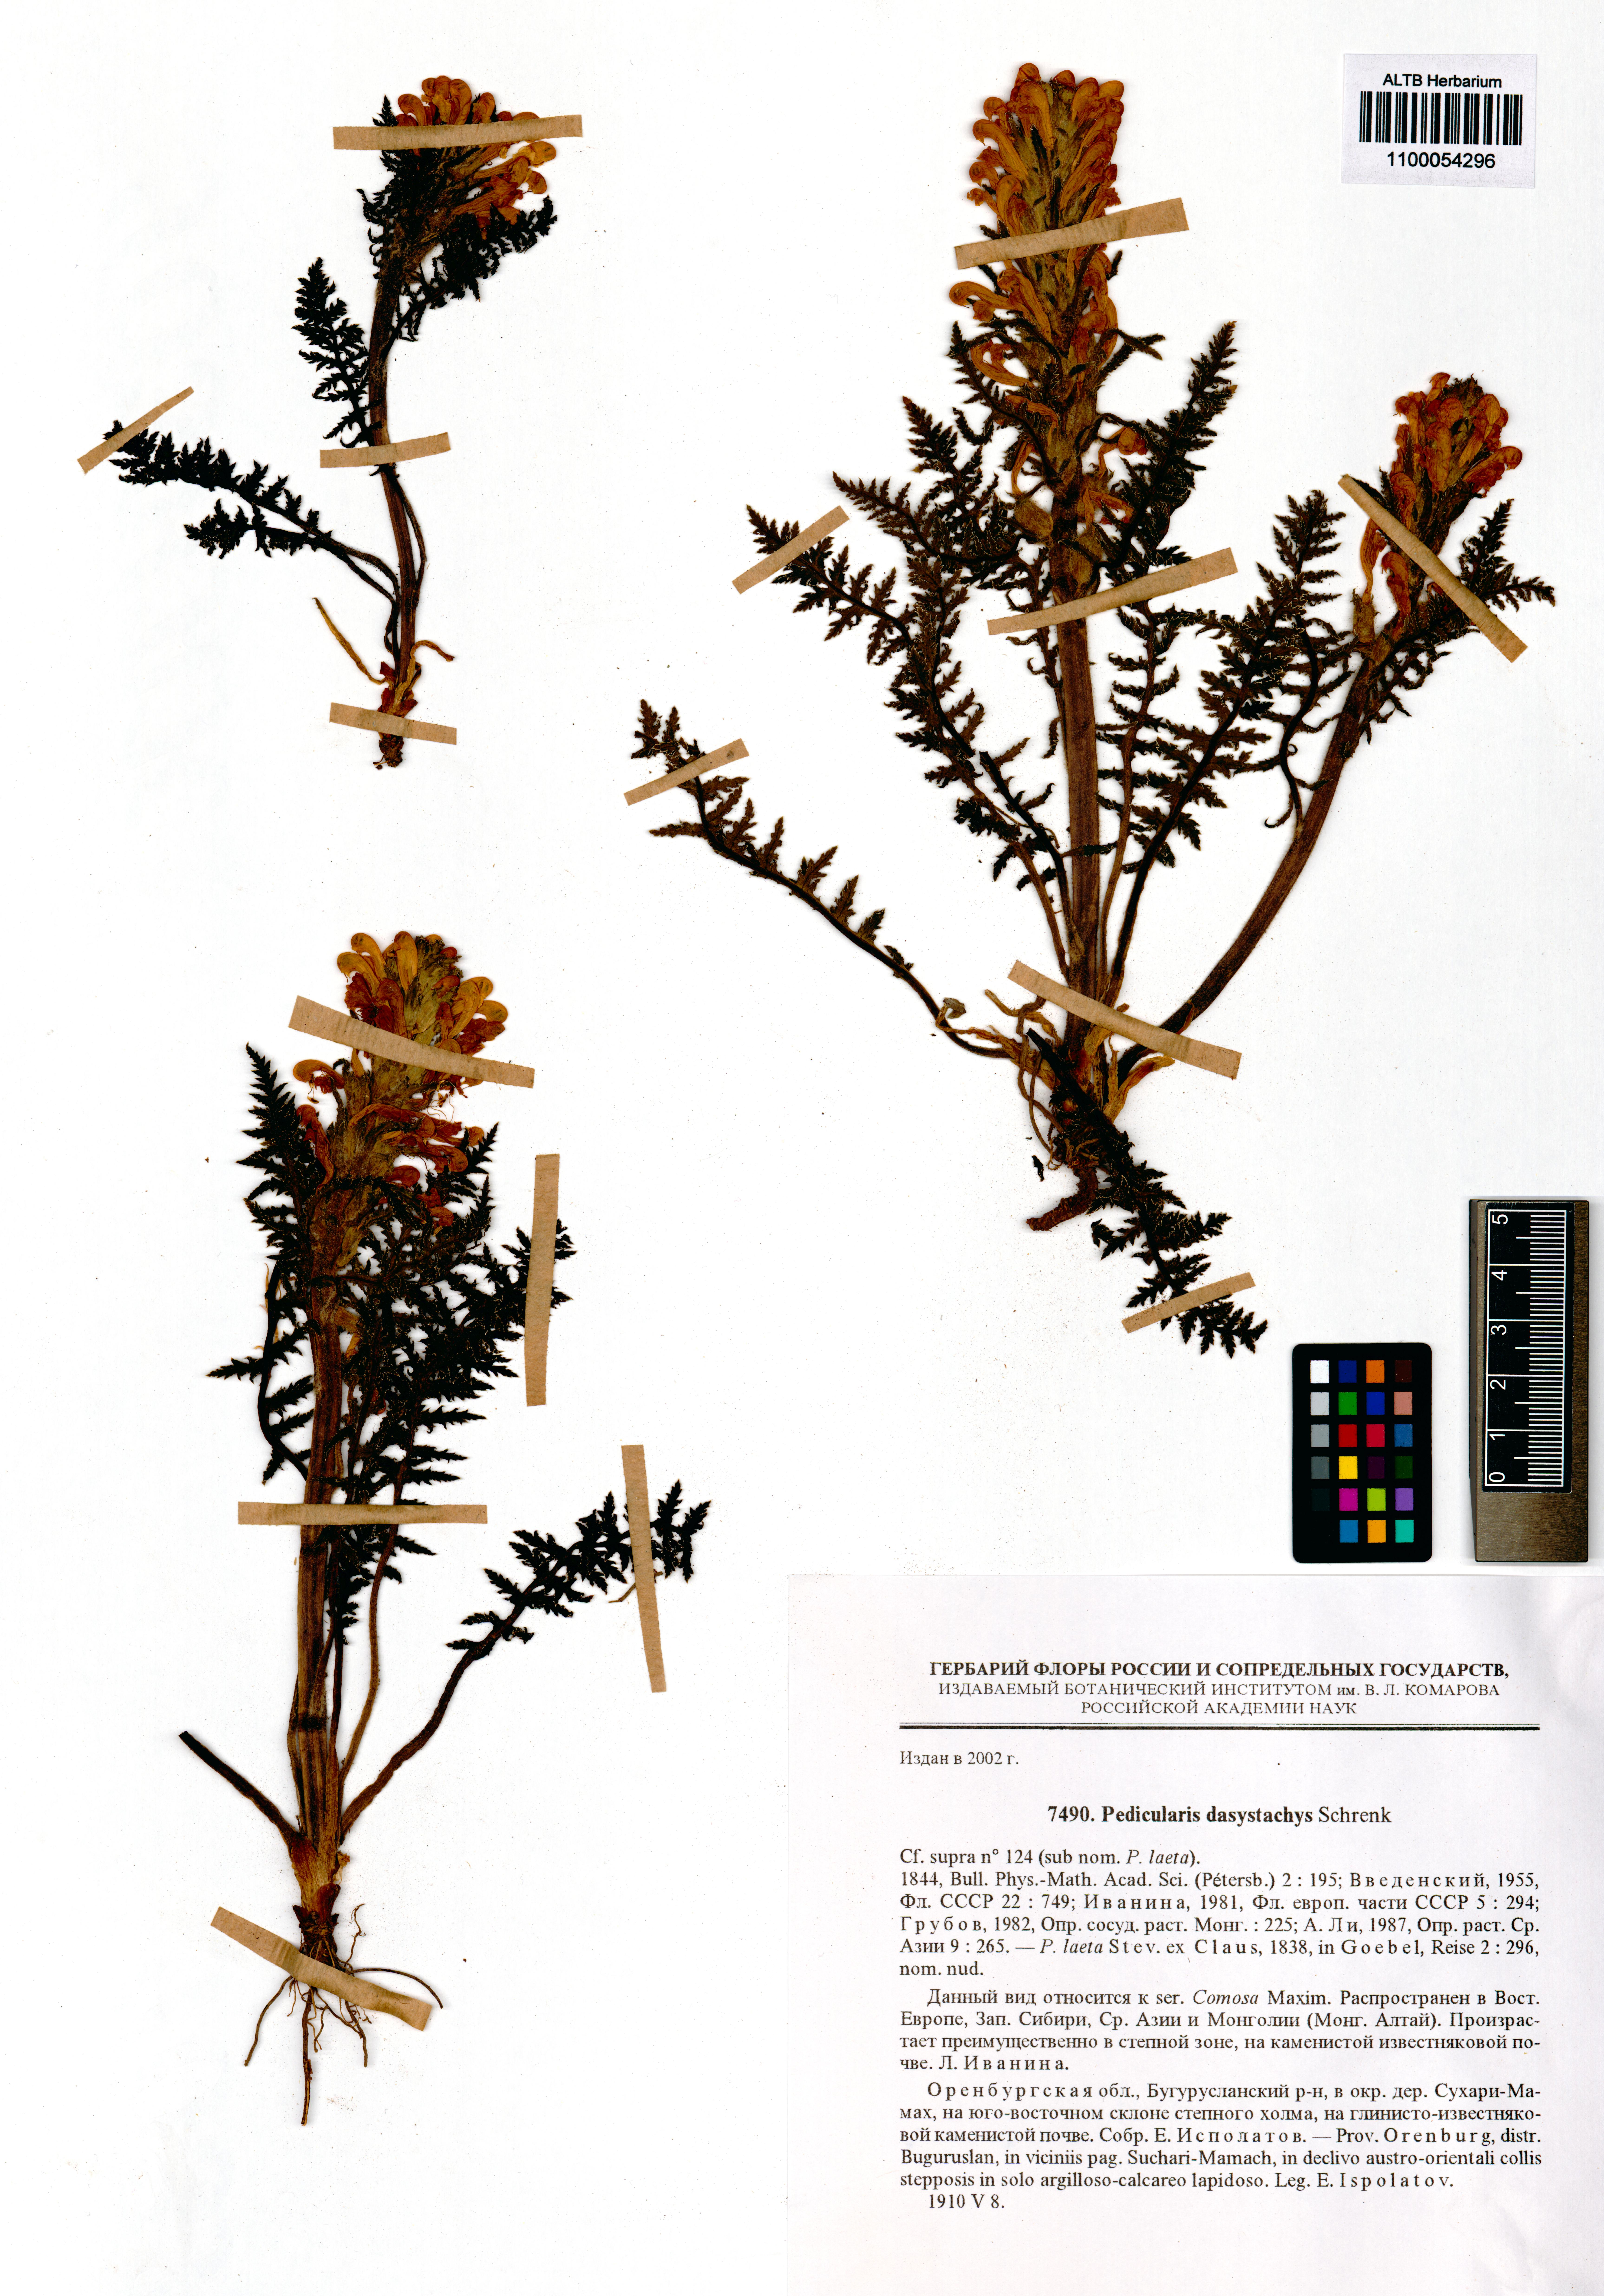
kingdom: Plantae
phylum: Tracheophyta
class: Magnoliopsida
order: Lamiales
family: Orobanchaceae
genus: Pedicularis
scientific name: Pedicularis dasystachys
